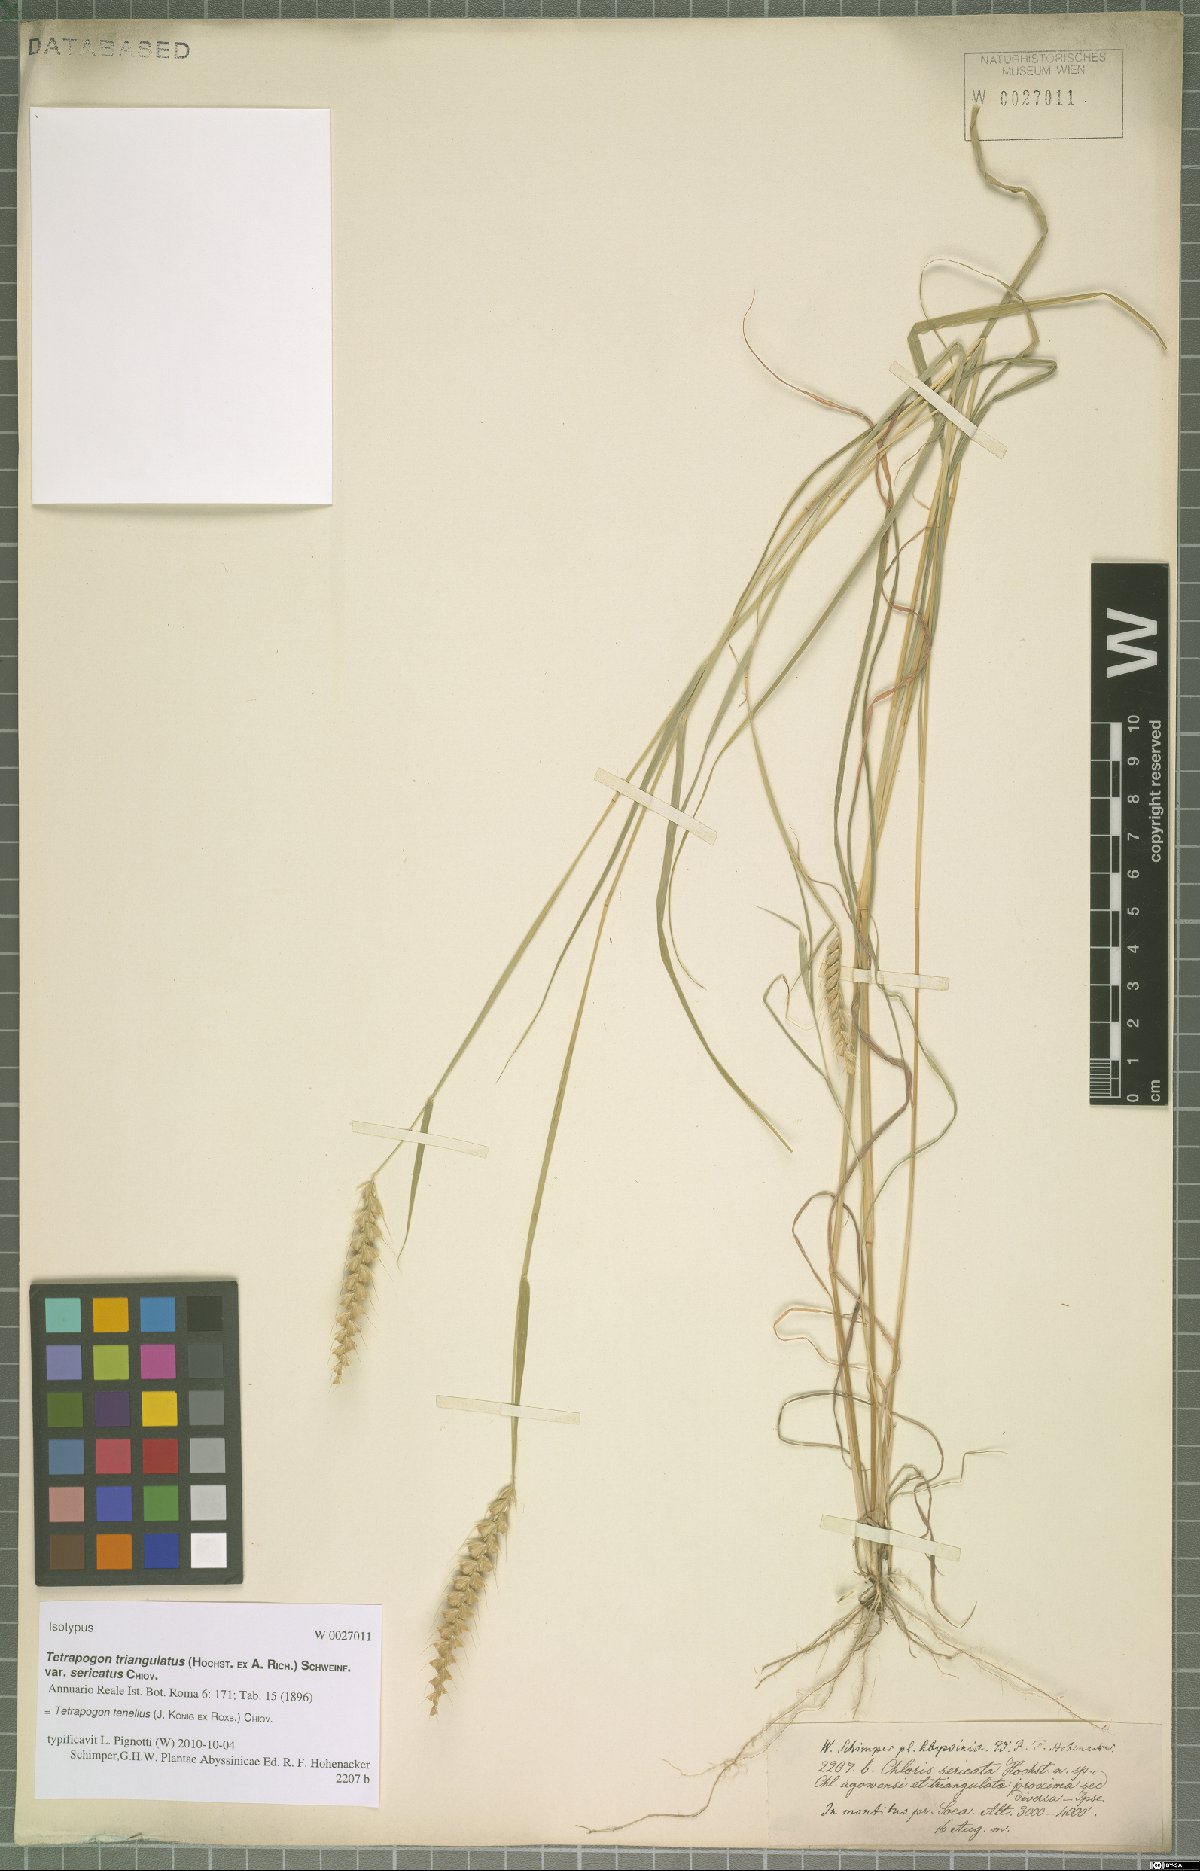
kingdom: Plantae
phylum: Tracheophyta
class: Liliopsida
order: Poales
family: Poaceae
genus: Tetrapogon
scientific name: Tetrapogon tenellus
